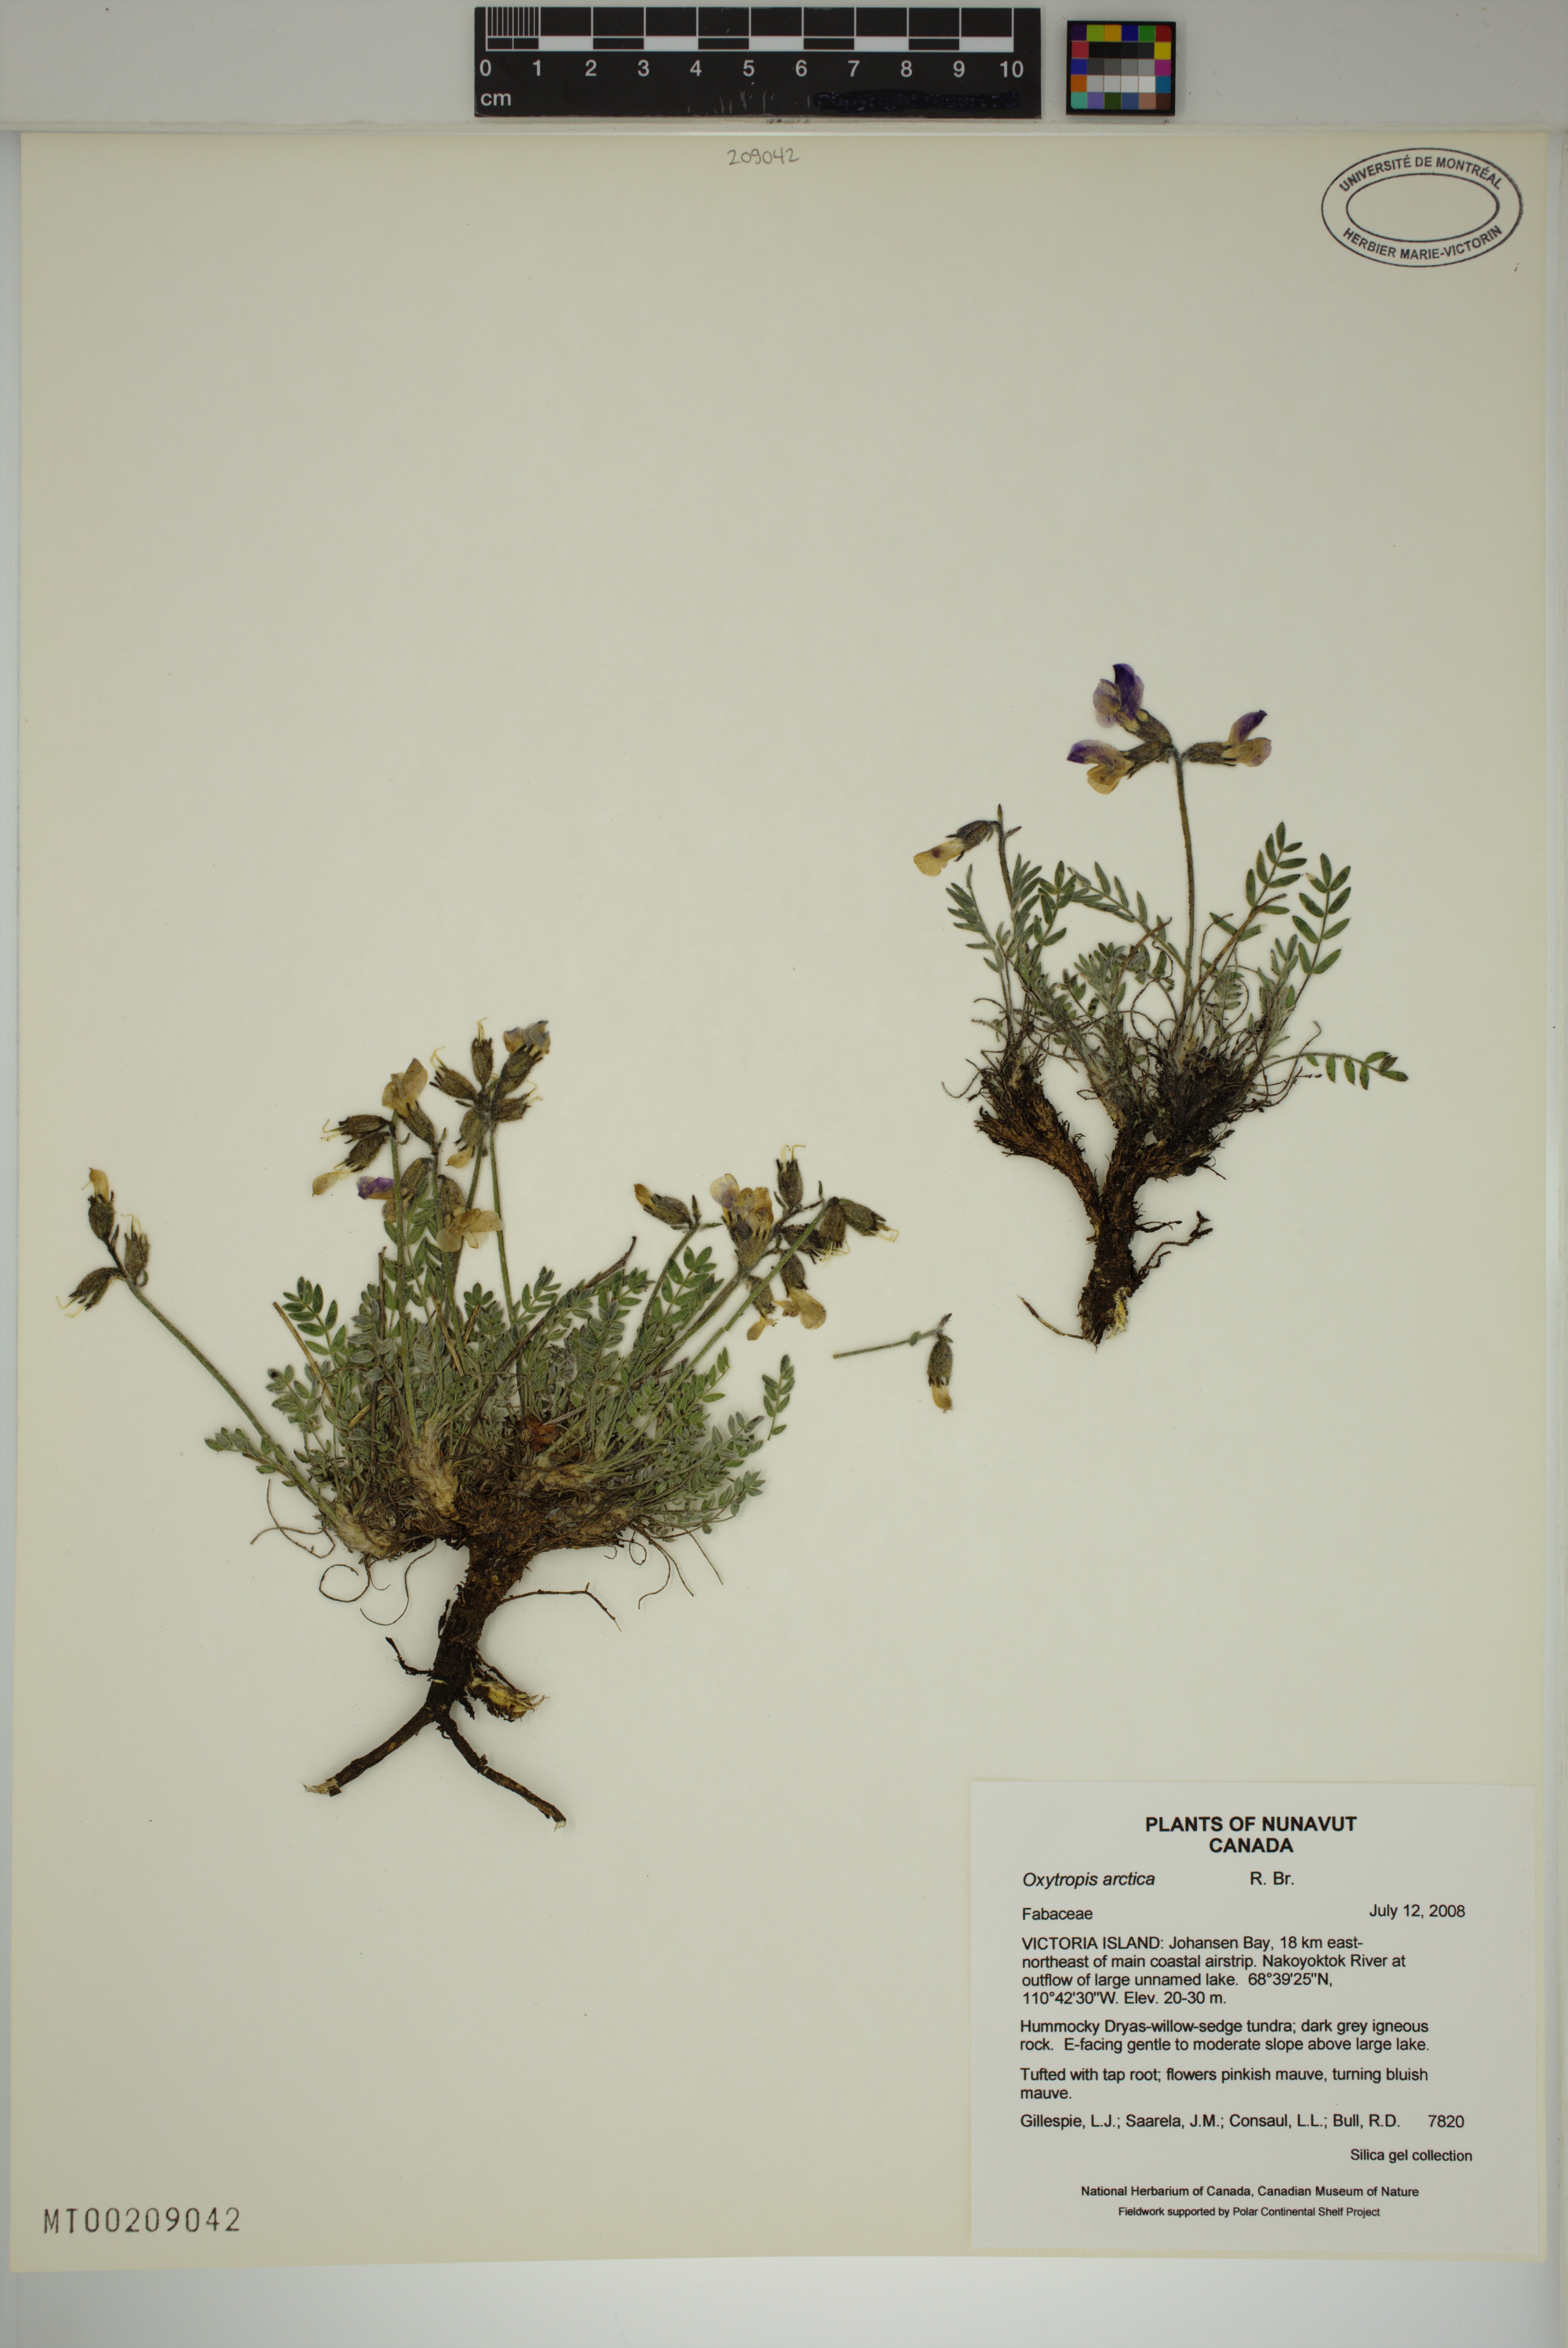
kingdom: Plantae
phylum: Tracheophyta
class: Magnoliopsida
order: Fabales
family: Fabaceae
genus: Oxytropis
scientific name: Oxytropis arctica
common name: Arctic locoweed
